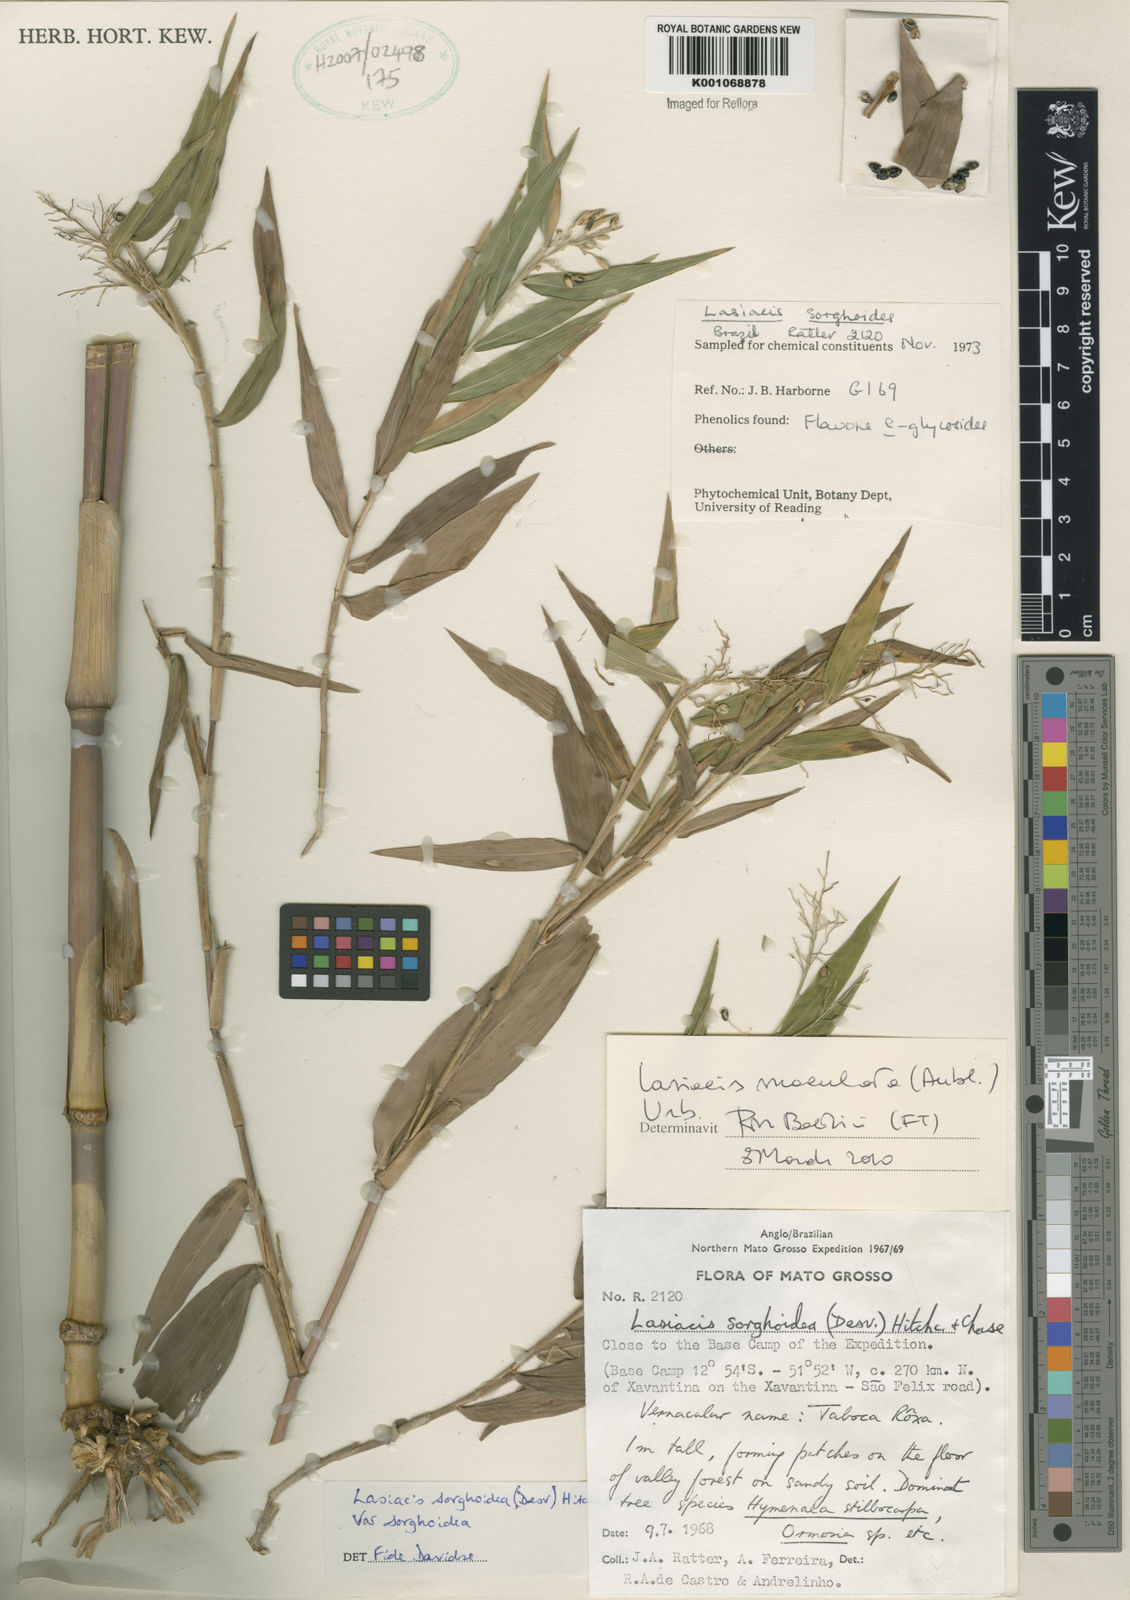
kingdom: Plantae
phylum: Tracheophyta
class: Liliopsida
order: Poales
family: Poaceae
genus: Lasiacis
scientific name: Lasiacis maculata
